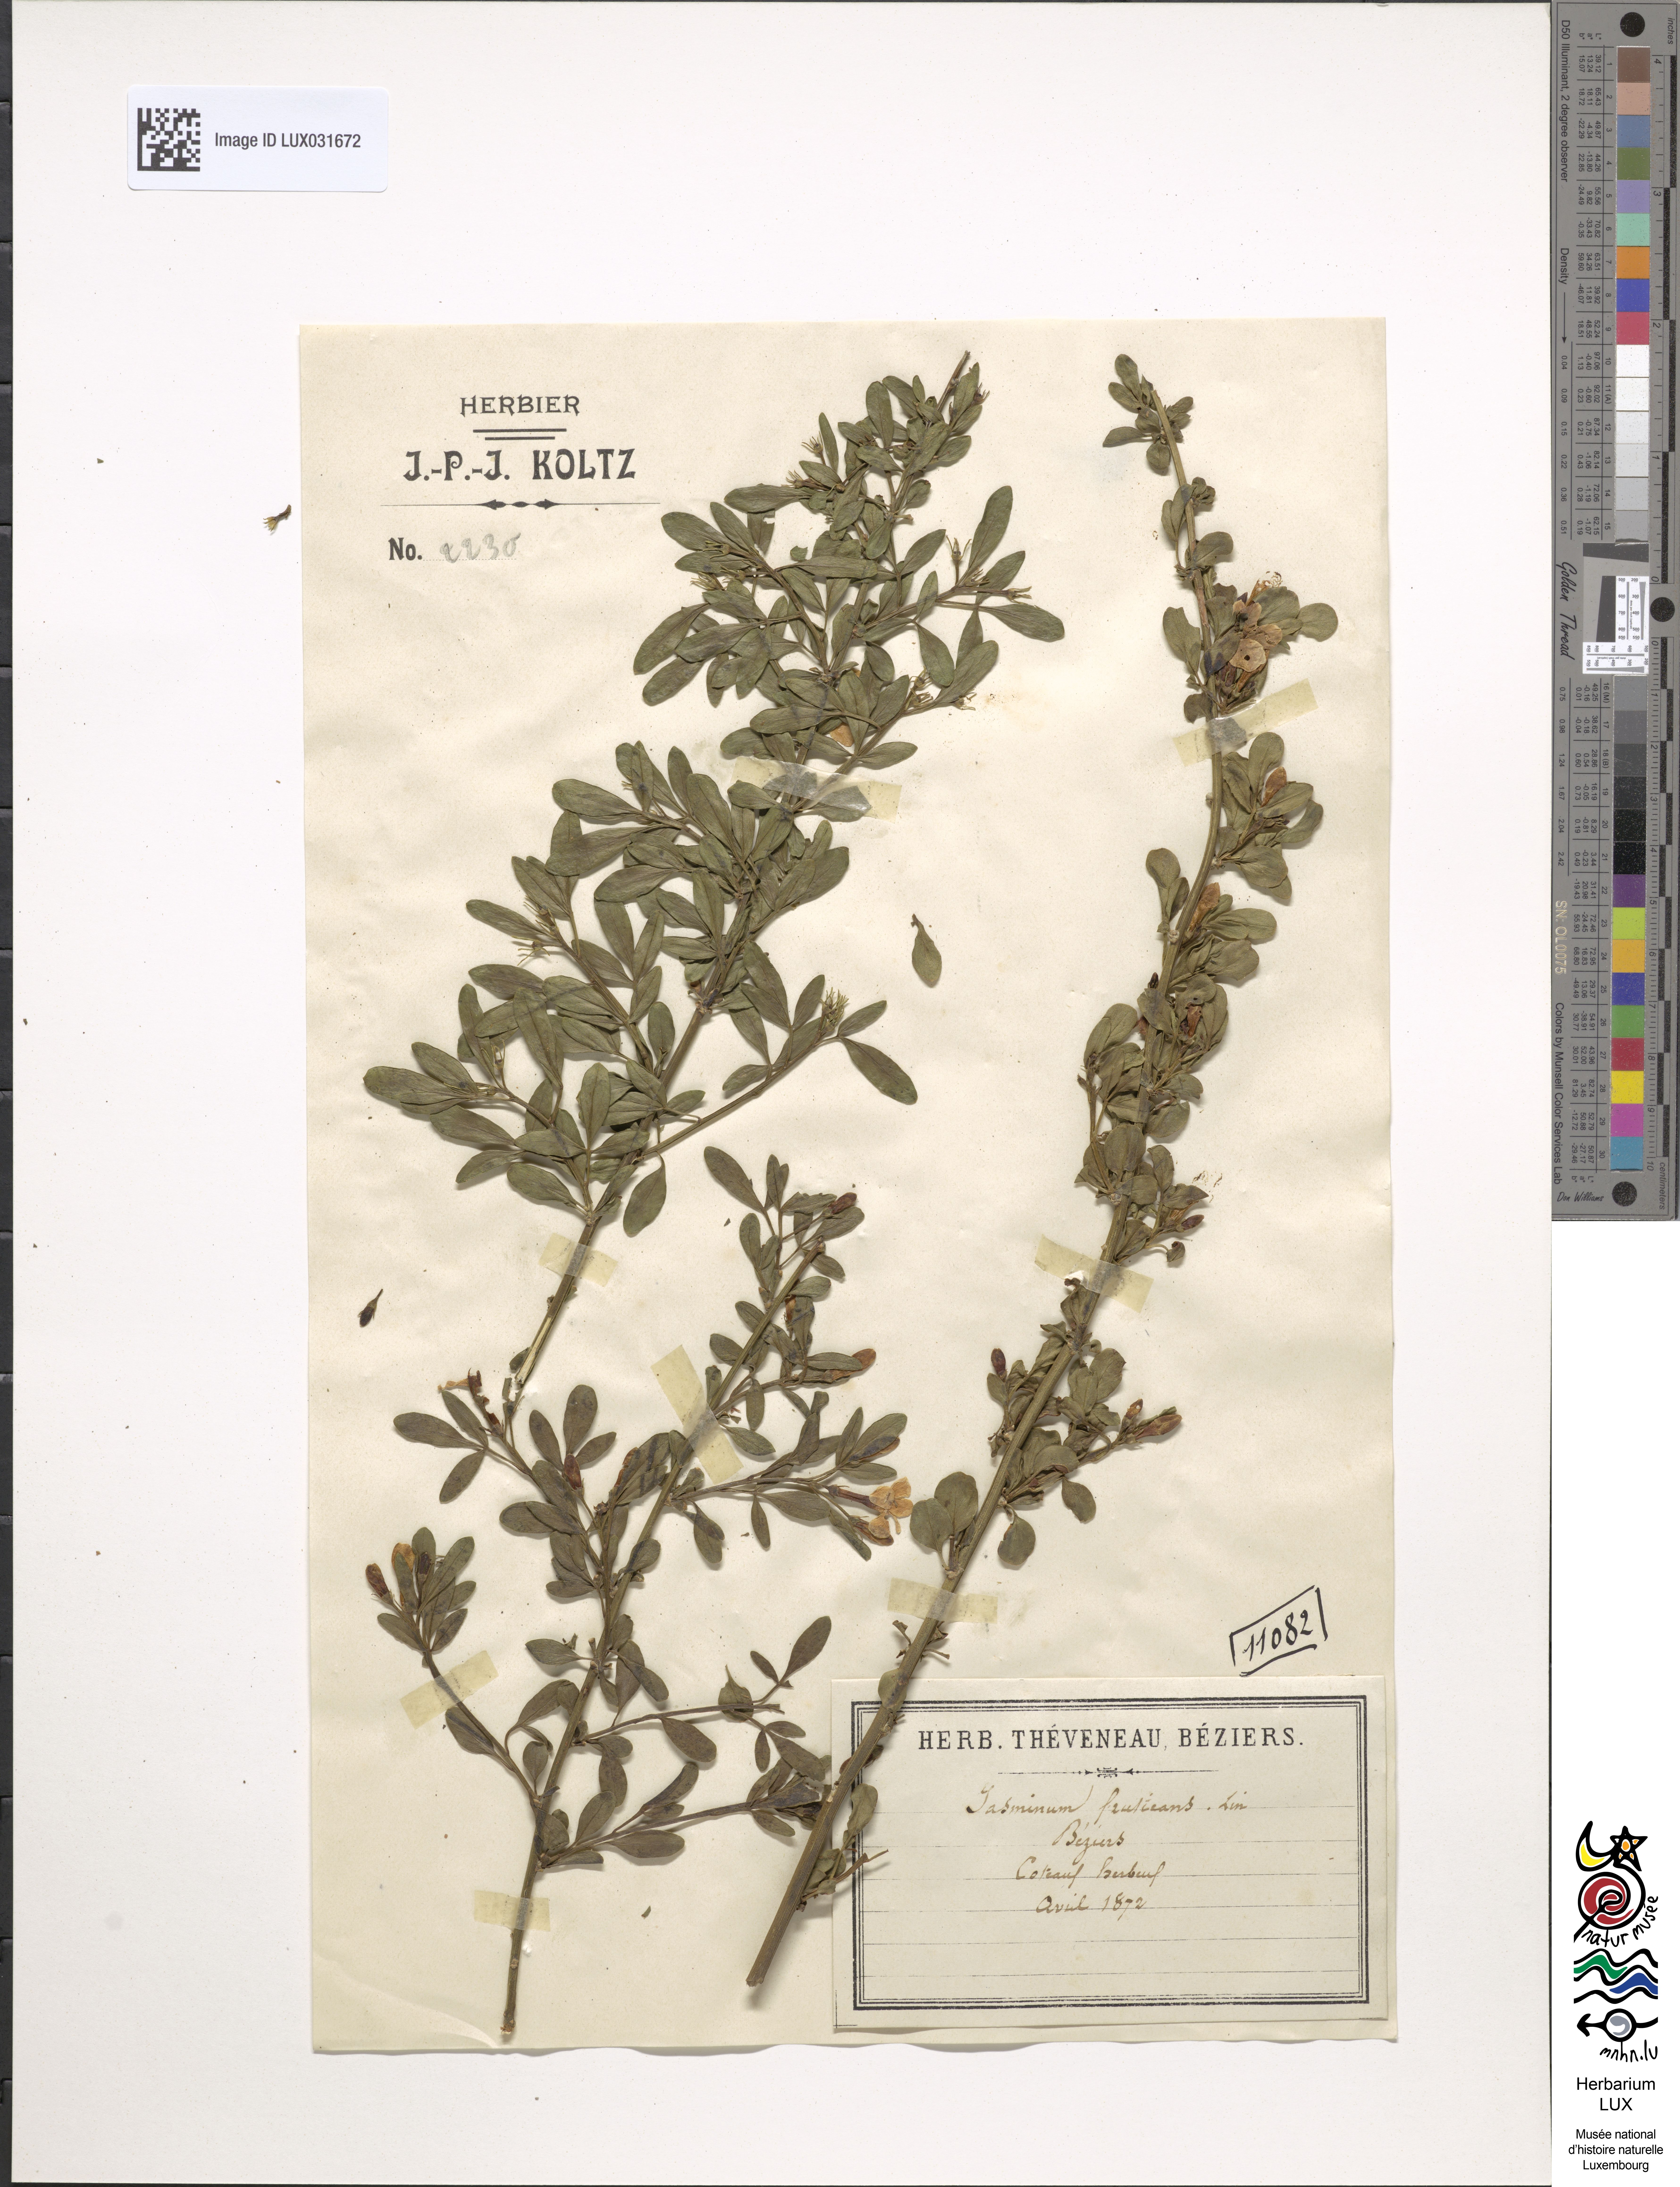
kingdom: Plantae
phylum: Tracheophyta
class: Magnoliopsida
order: Lamiales
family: Oleaceae
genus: Chrysojasminum
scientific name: Chrysojasminum fruticans
